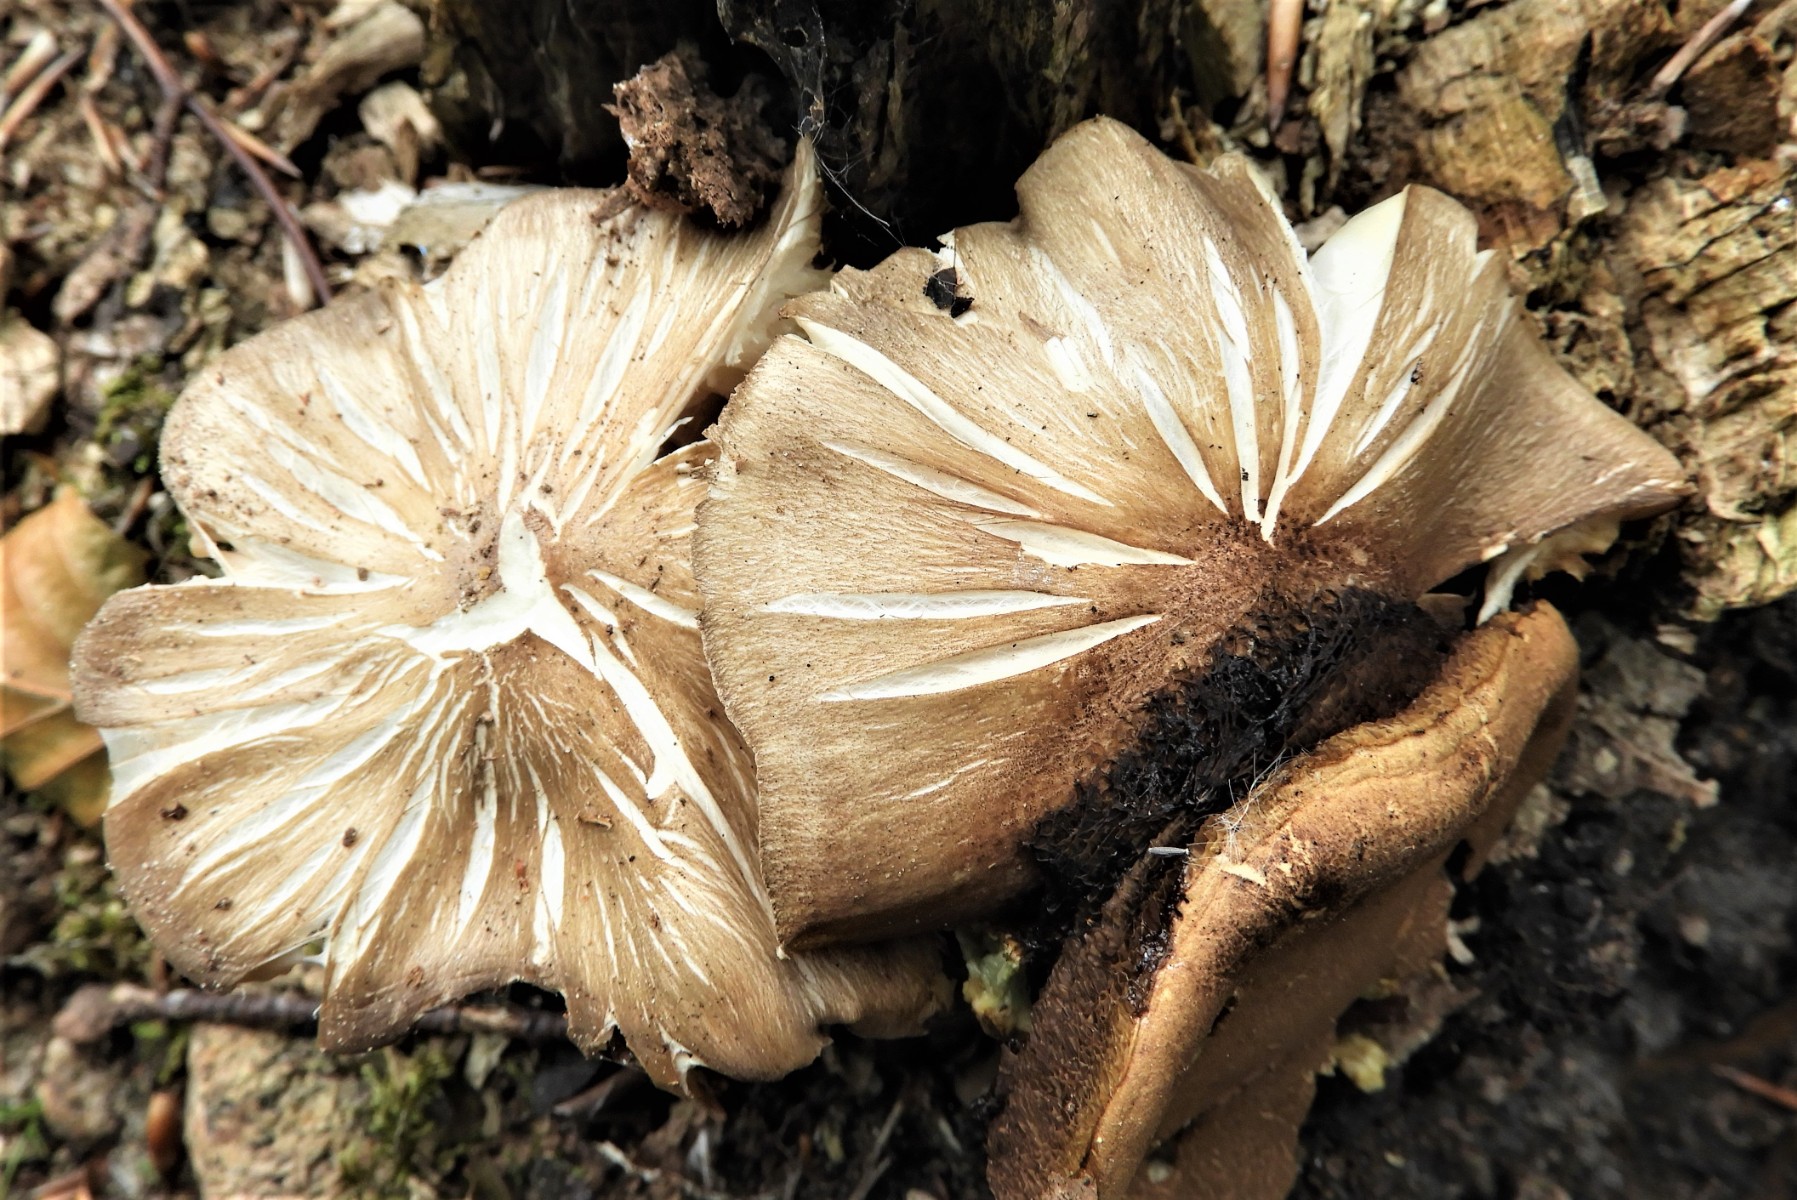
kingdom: Fungi
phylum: Basidiomycota
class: Agaricomycetes
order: Agaricales
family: Tricholomataceae
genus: Megacollybia
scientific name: Megacollybia platyphylla
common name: bredbladet væbnerhat
